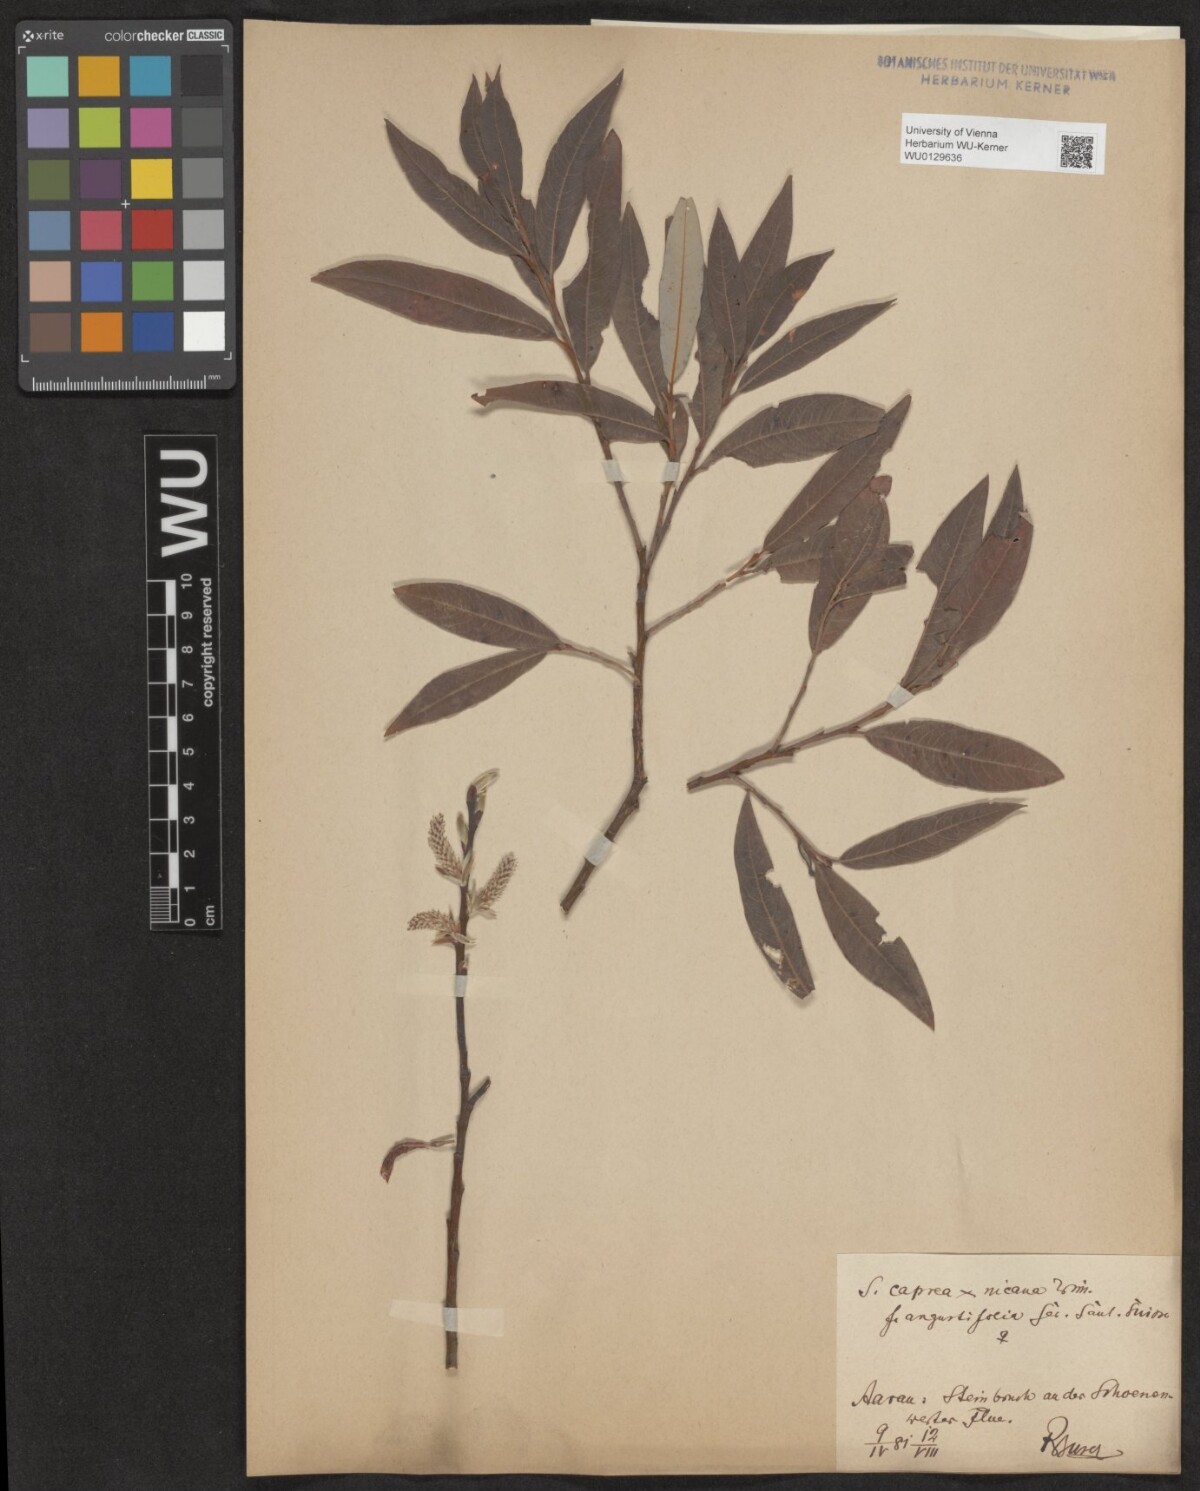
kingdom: Plantae
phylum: Tracheophyta
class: Magnoliopsida
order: Malpighiales
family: Salicaceae
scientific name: Salicaceae
